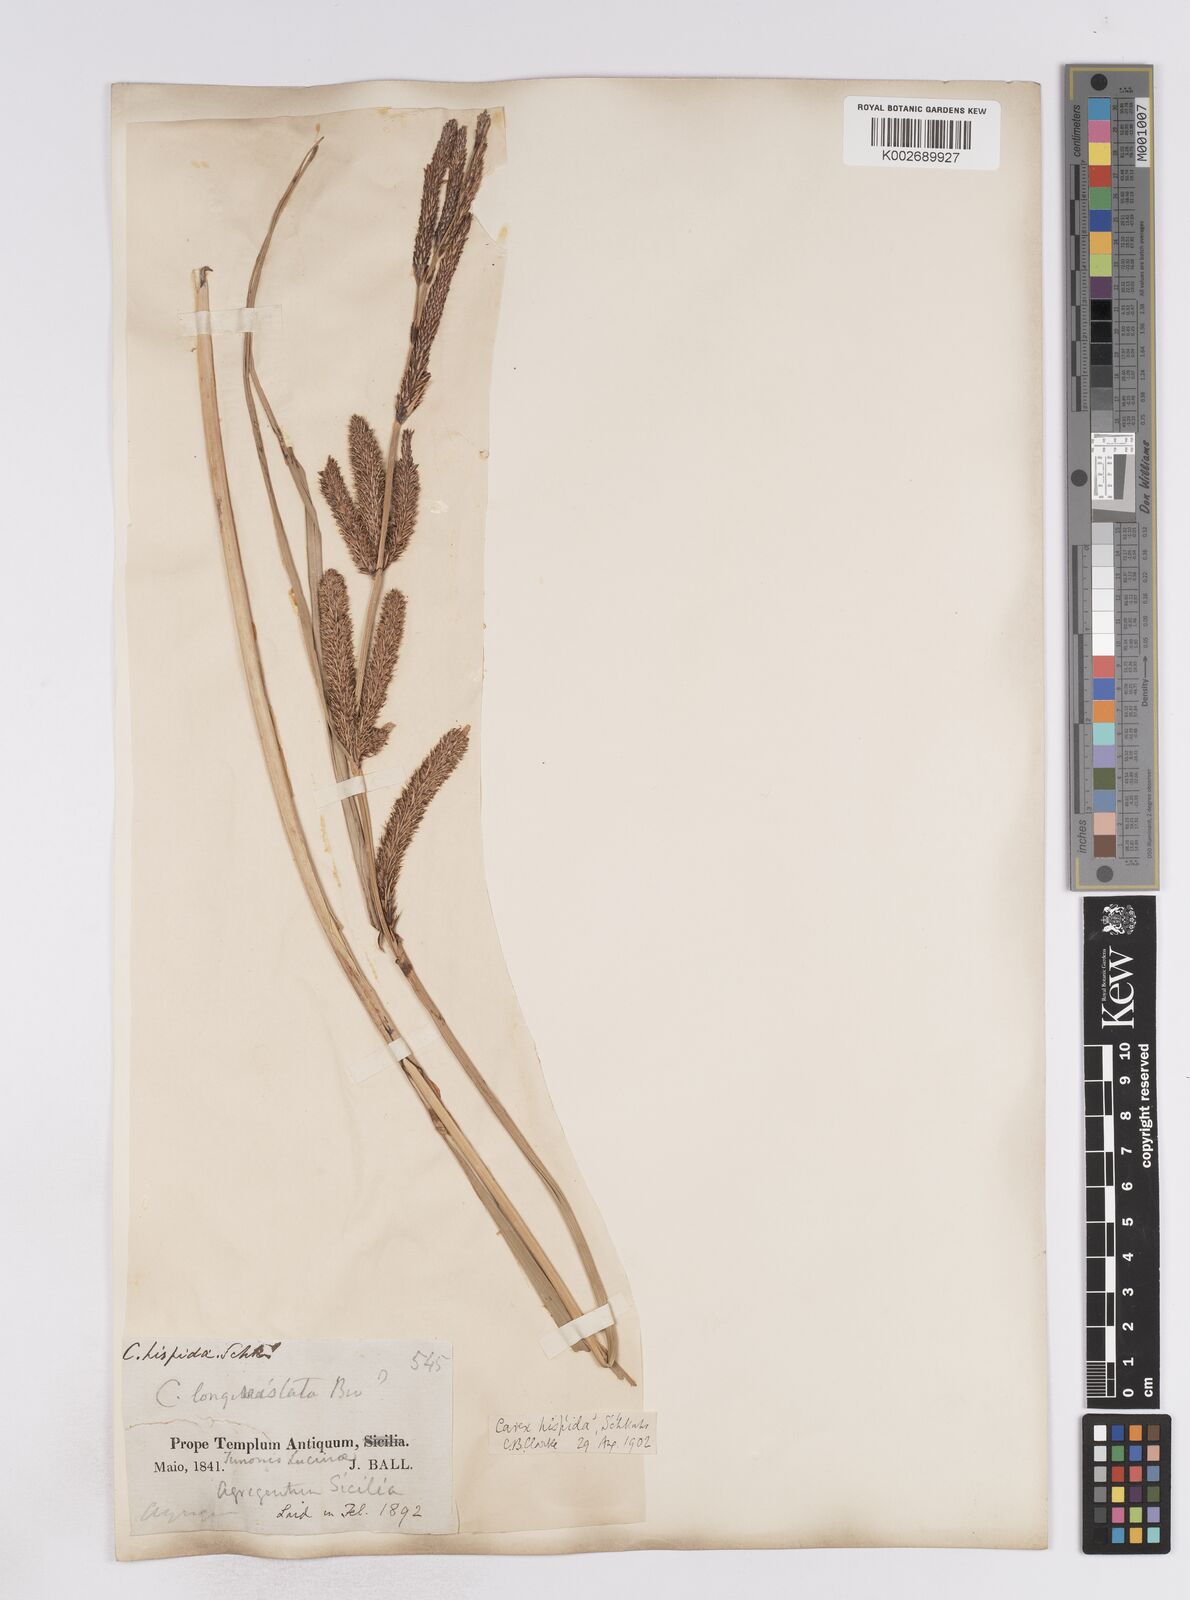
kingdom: Plantae
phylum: Tracheophyta
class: Liliopsida
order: Poales
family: Cyperaceae
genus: Carex
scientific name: Carex hispida
